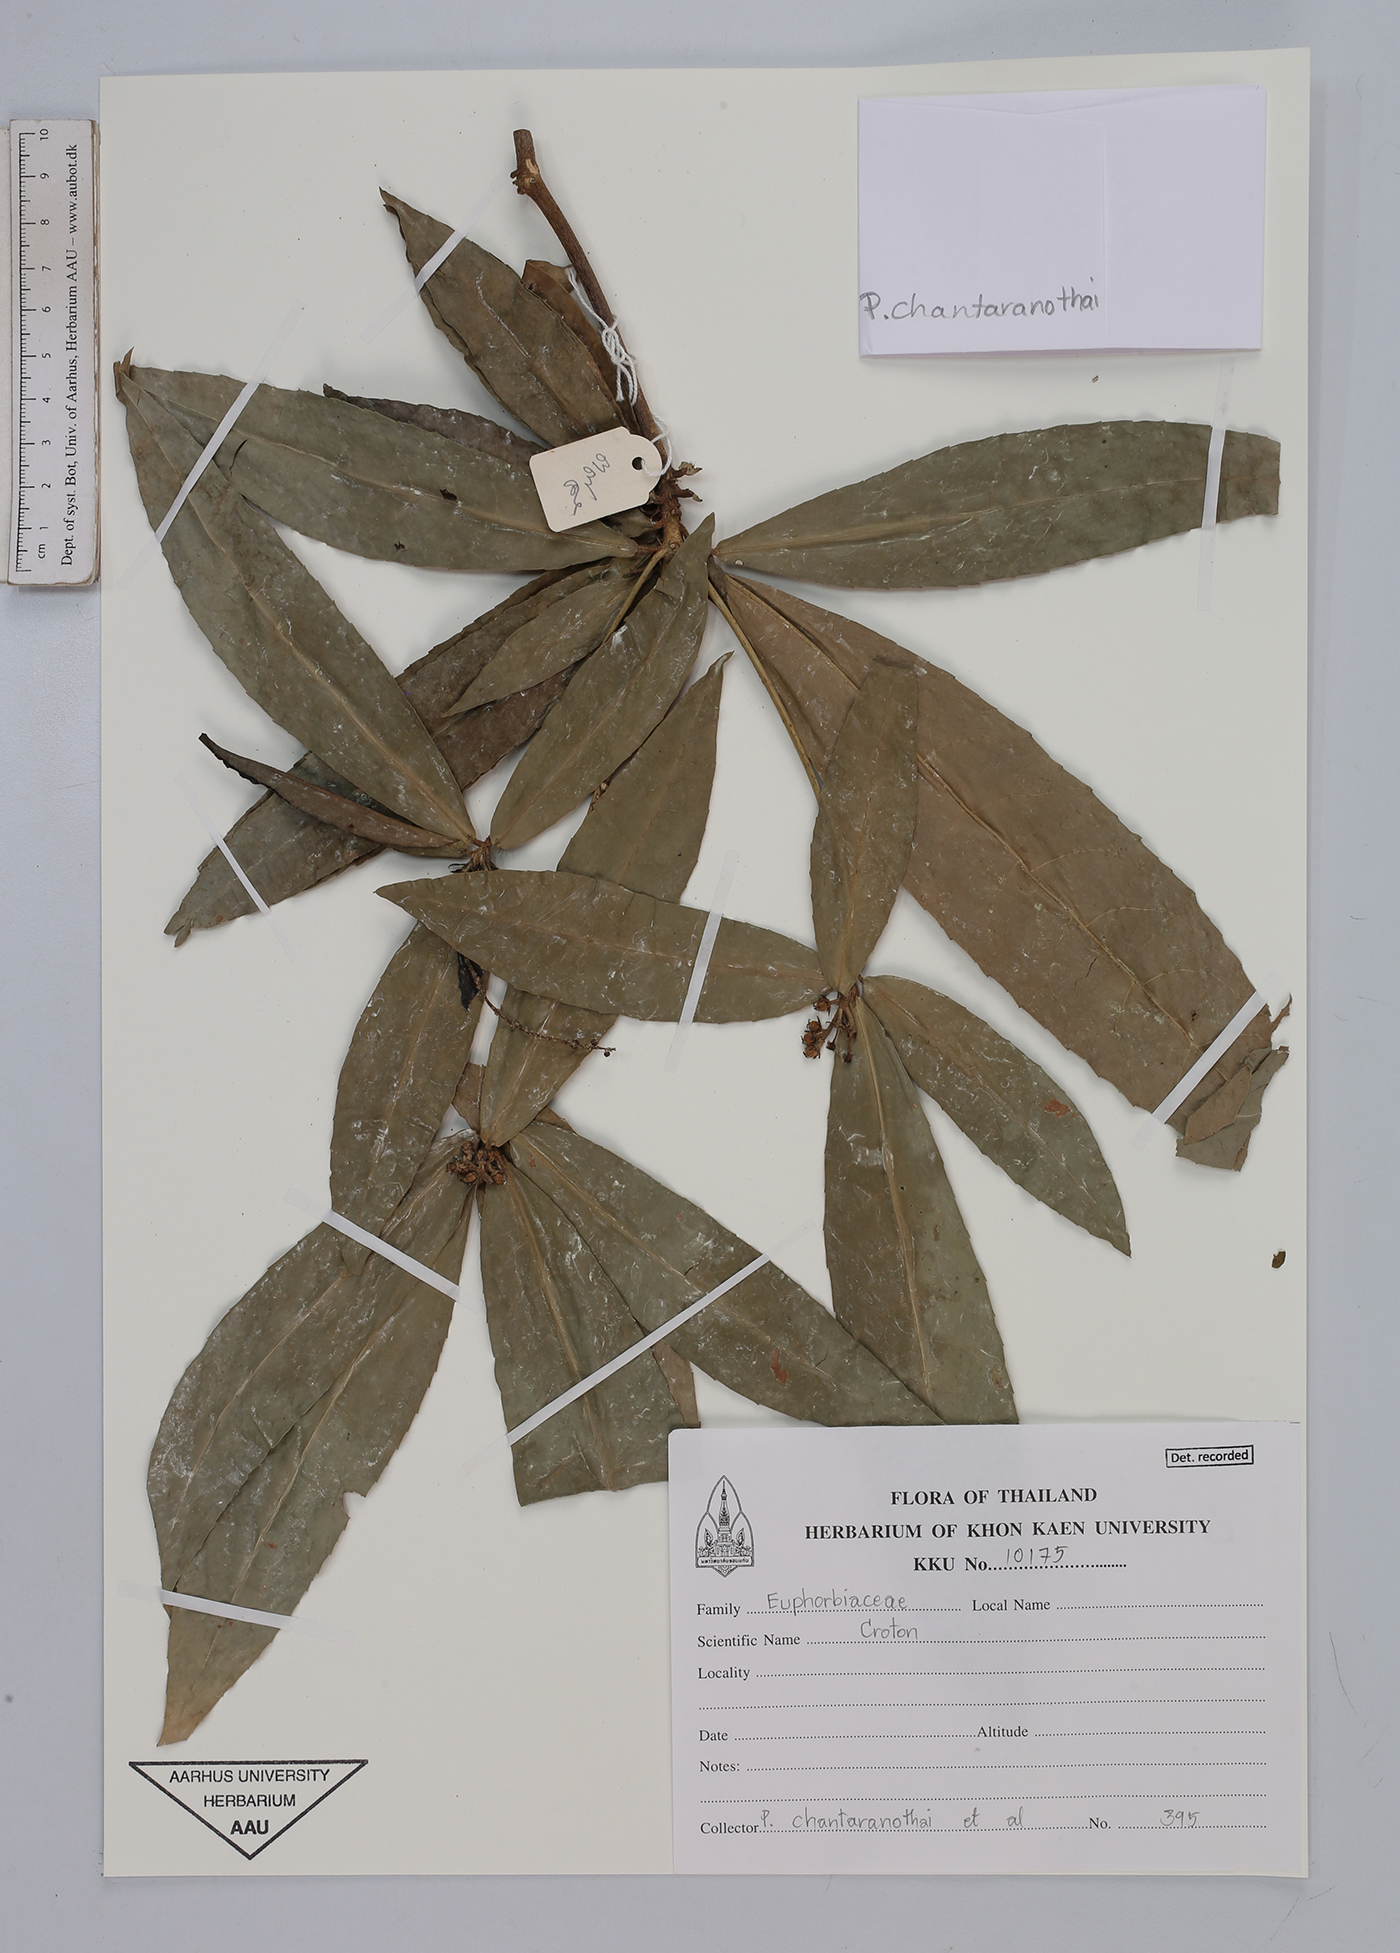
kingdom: Plantae
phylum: Tracheophyta
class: Magnoliopsida
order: Malpighiales
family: Euphorbiaceae
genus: Croton
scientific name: Croton
